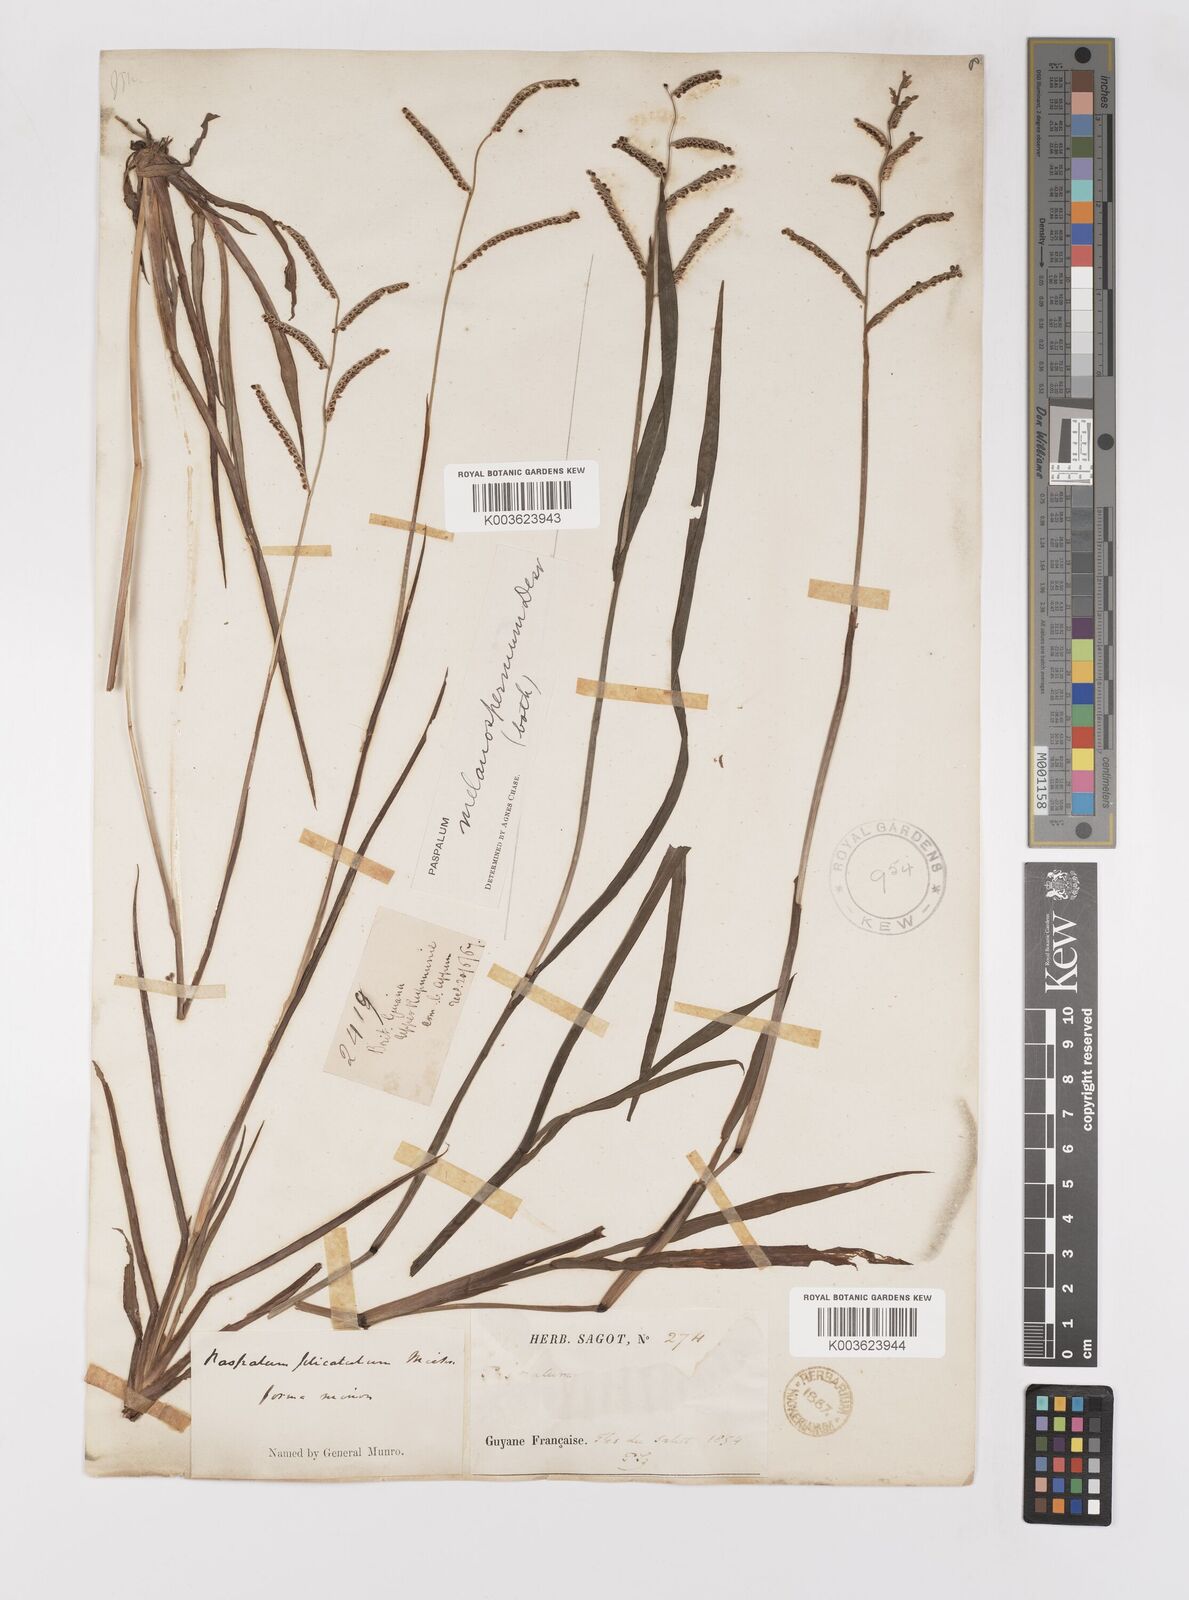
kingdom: Plantae
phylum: Tracheophyta
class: Liliopsida
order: Poales
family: Poaceae
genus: Paspalum
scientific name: Paspalum melanospermum
